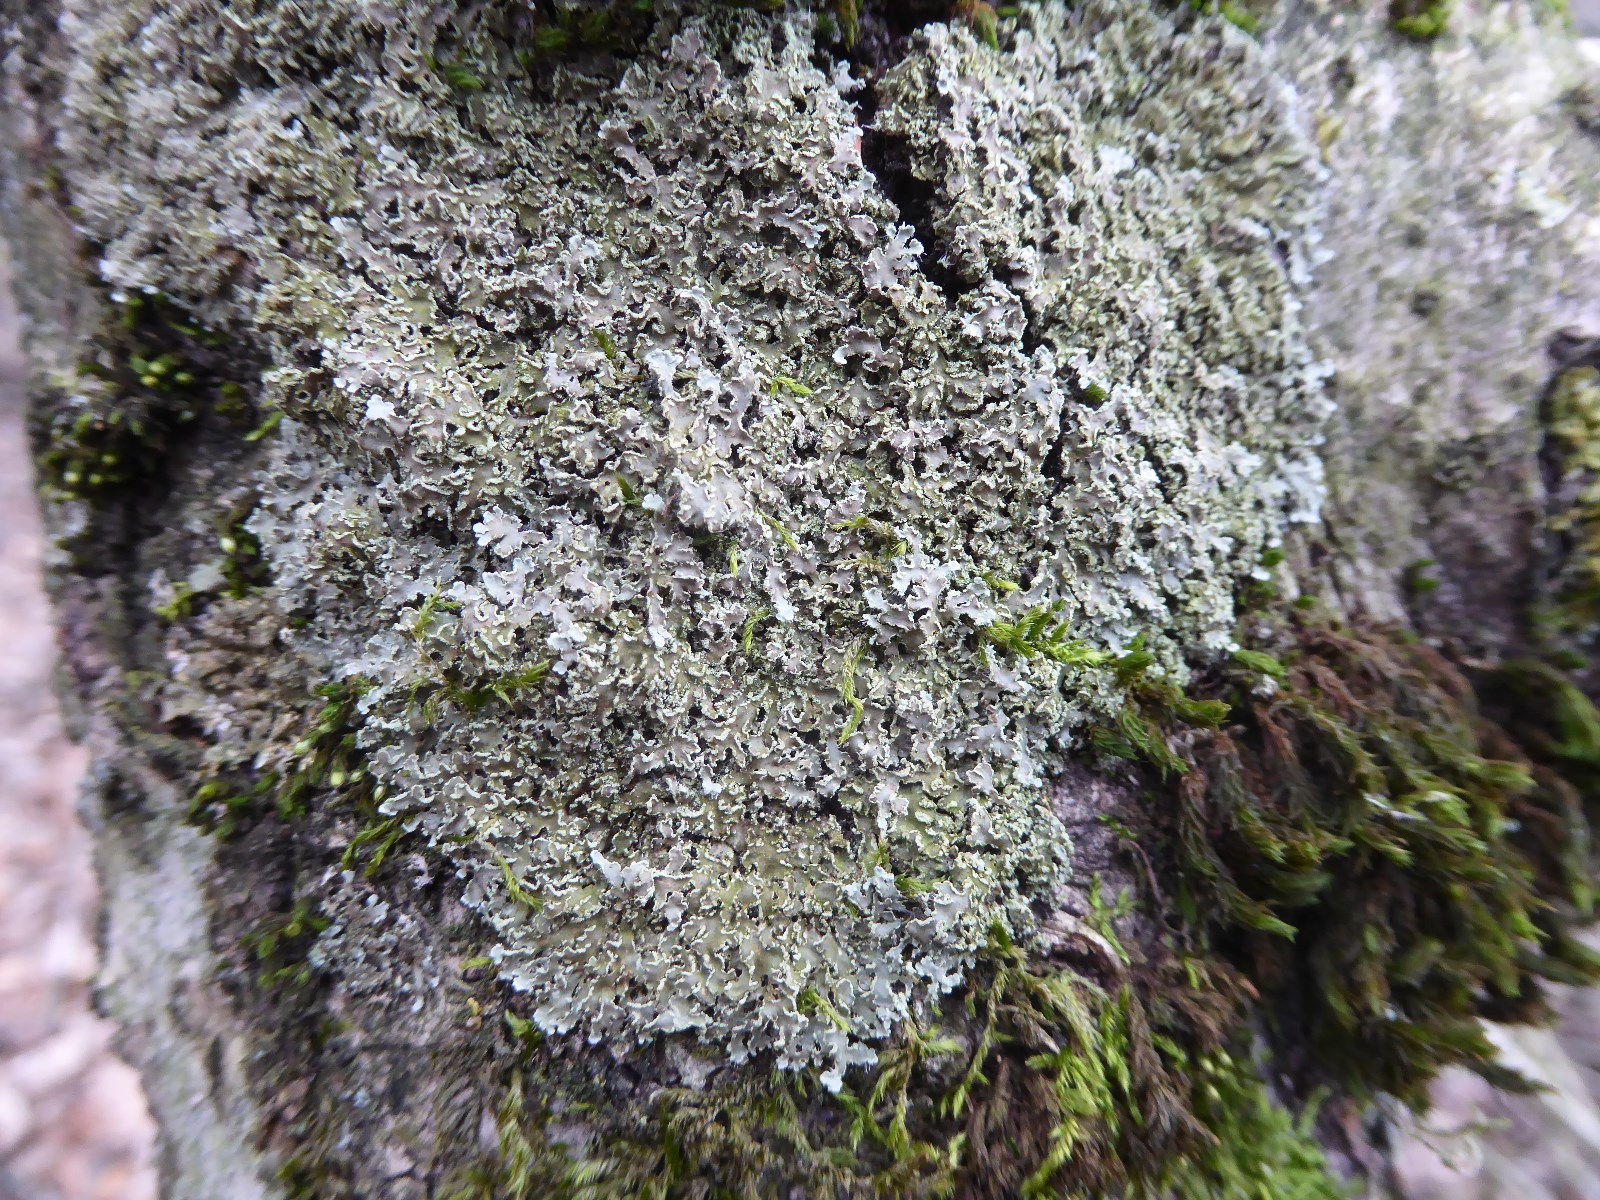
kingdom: Fungi
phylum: Ascomycota
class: Lecanoromycetes
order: Caliciales
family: Physciaceae
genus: Physconia
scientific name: Physconia perisidiosa
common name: liden dugrosetlav
